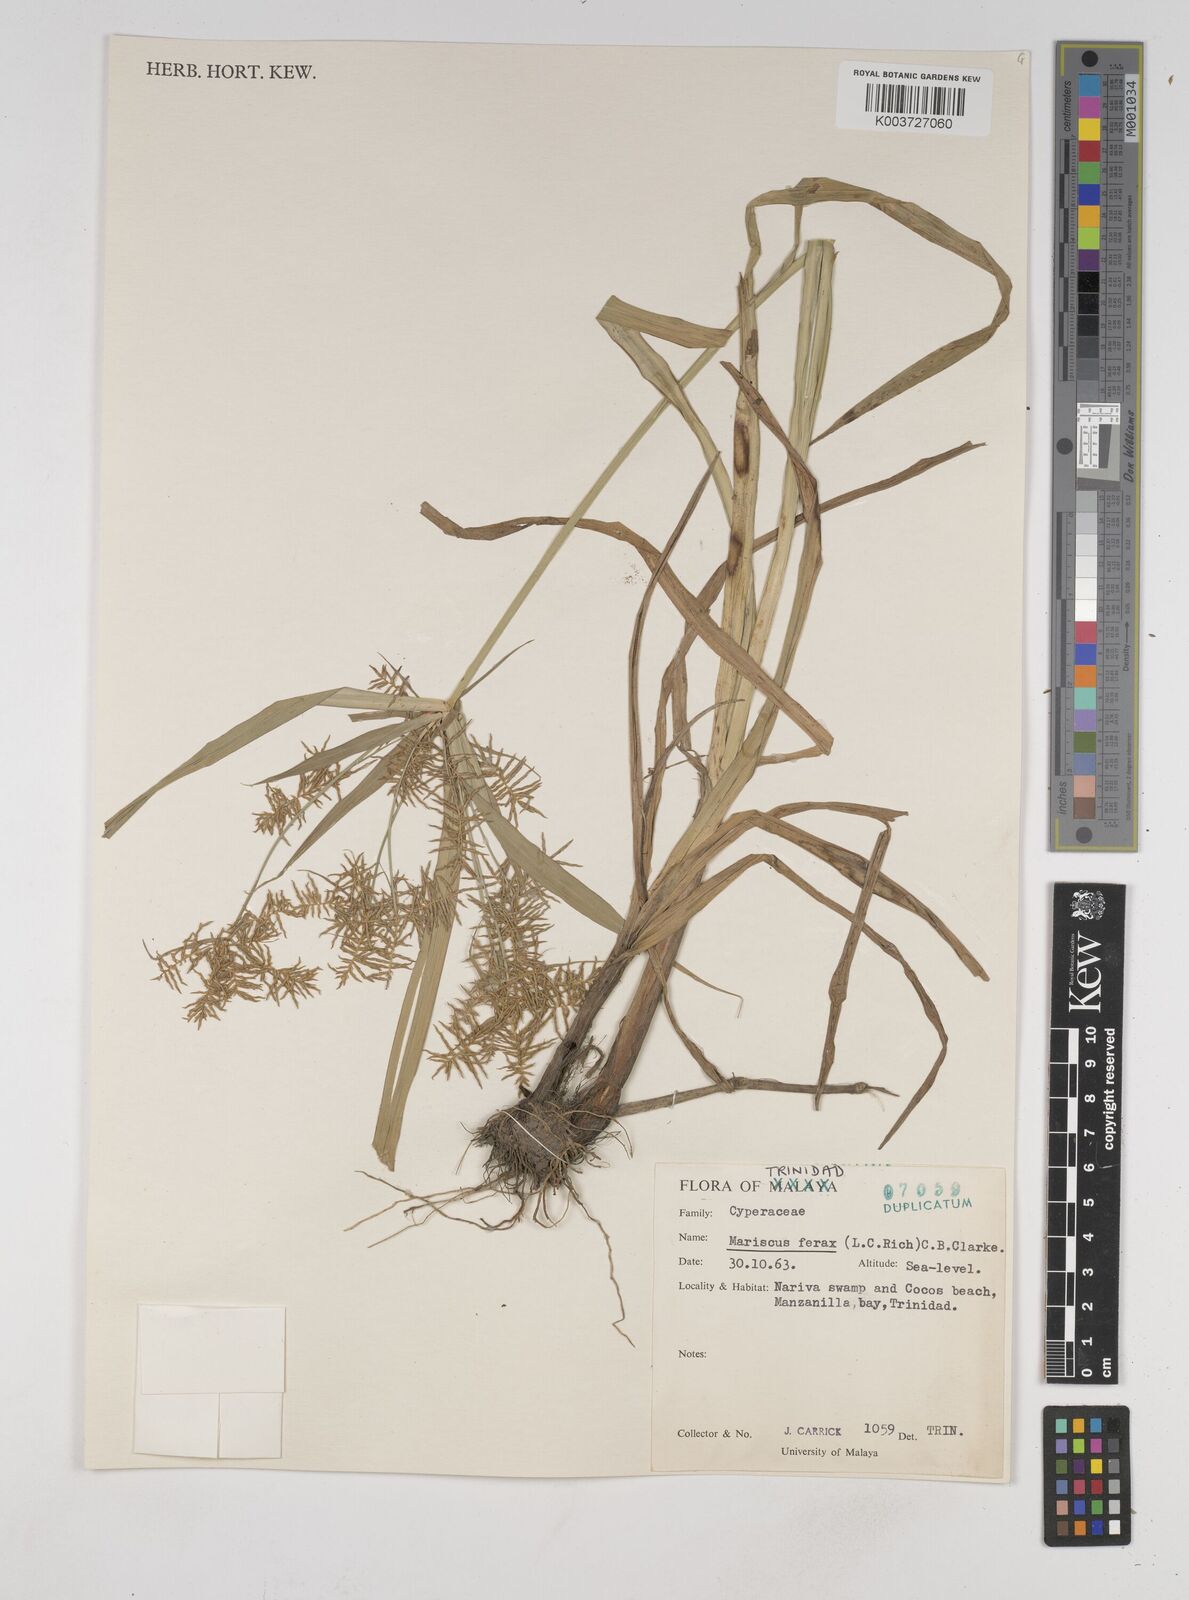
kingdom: Plantae
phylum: Tracheophyta
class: Liliopsida
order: Poales
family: Cyperaceae
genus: Cyperus
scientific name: Cyperus odoratus
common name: Fragrant flatsedge
